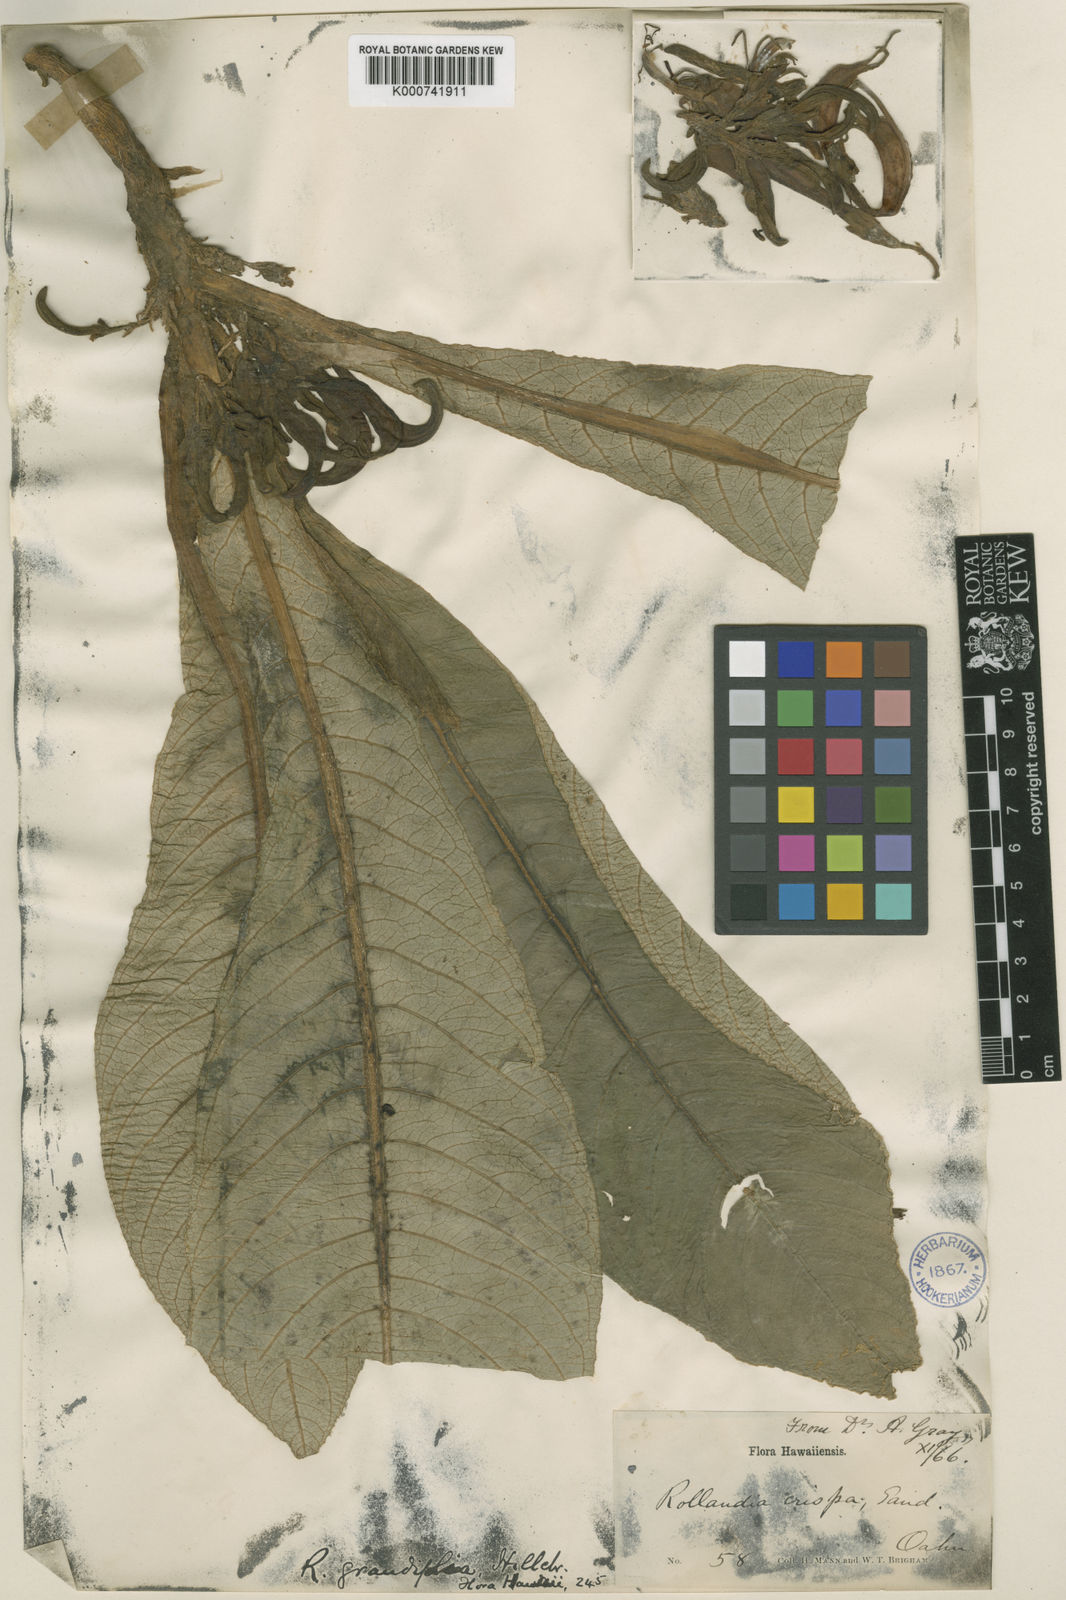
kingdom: Plantae
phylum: Tracheophyta
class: Magnoliopsida
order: Asterales
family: Campanulaceae
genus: Cyanea
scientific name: Cyanea lanceolata
